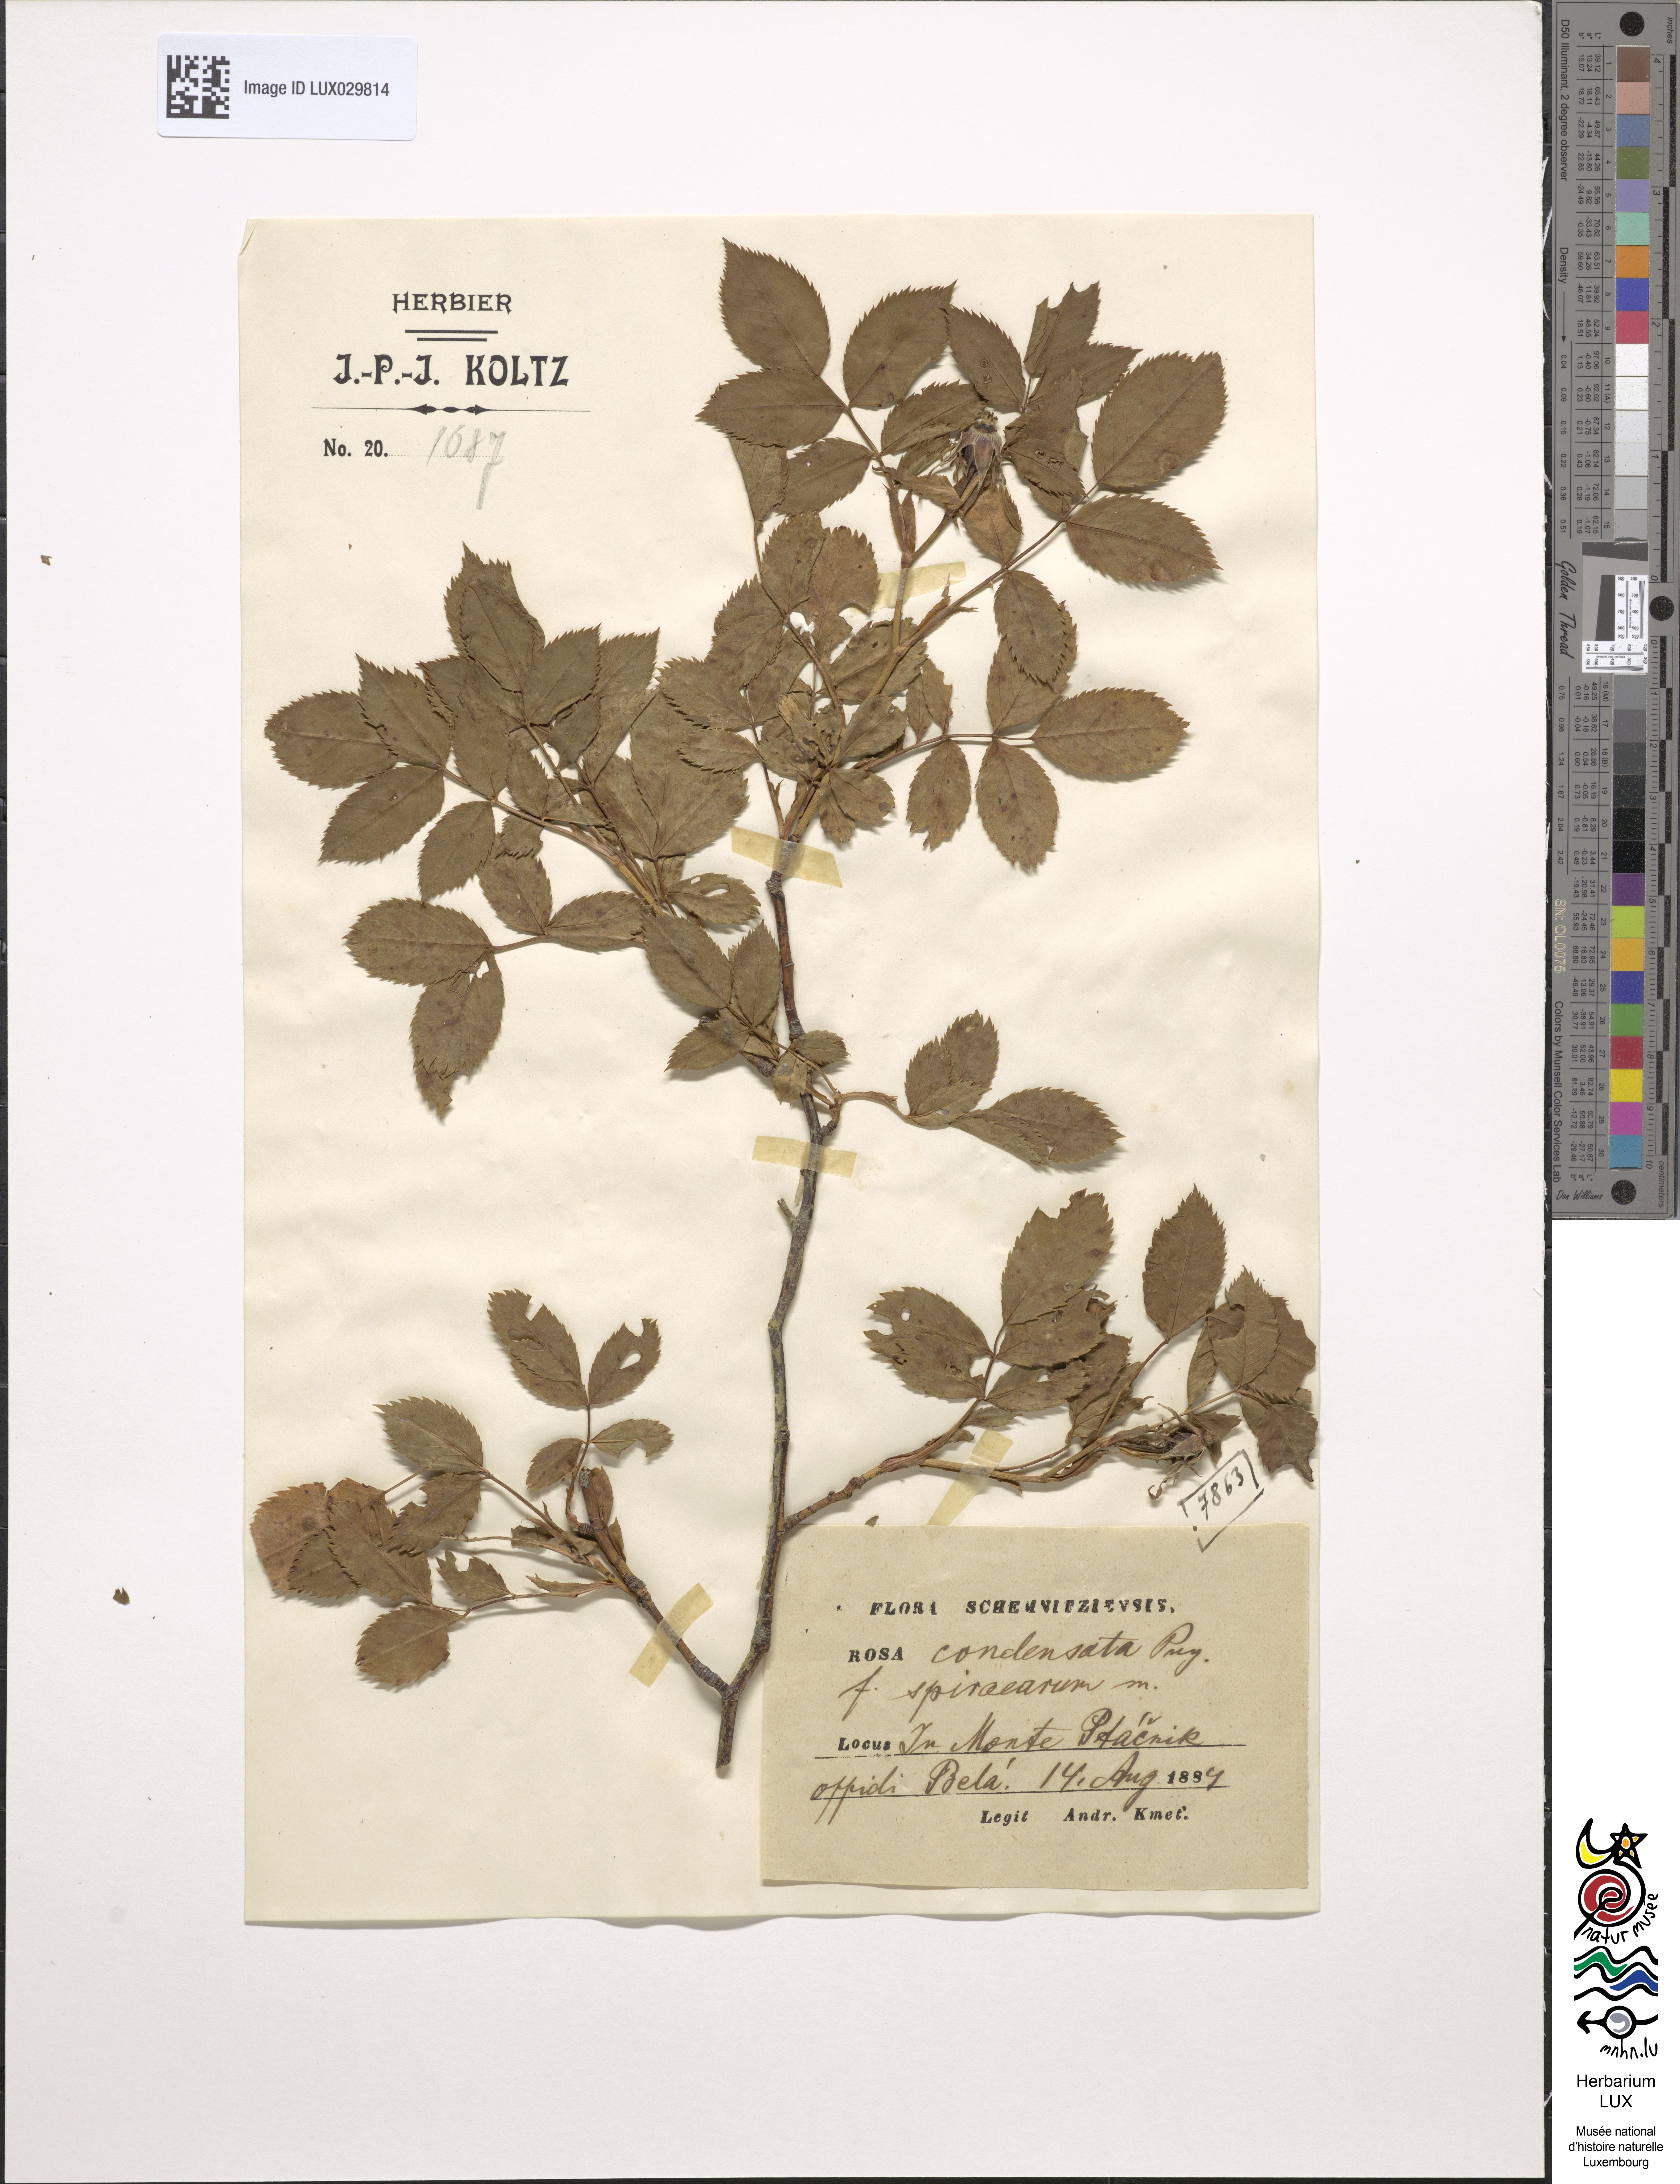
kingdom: Plantae
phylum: Tracheophyta
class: Magnoliopsida
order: Rosales
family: Rosaceae
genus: Rosa
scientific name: Rosa canina
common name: Dog rose
